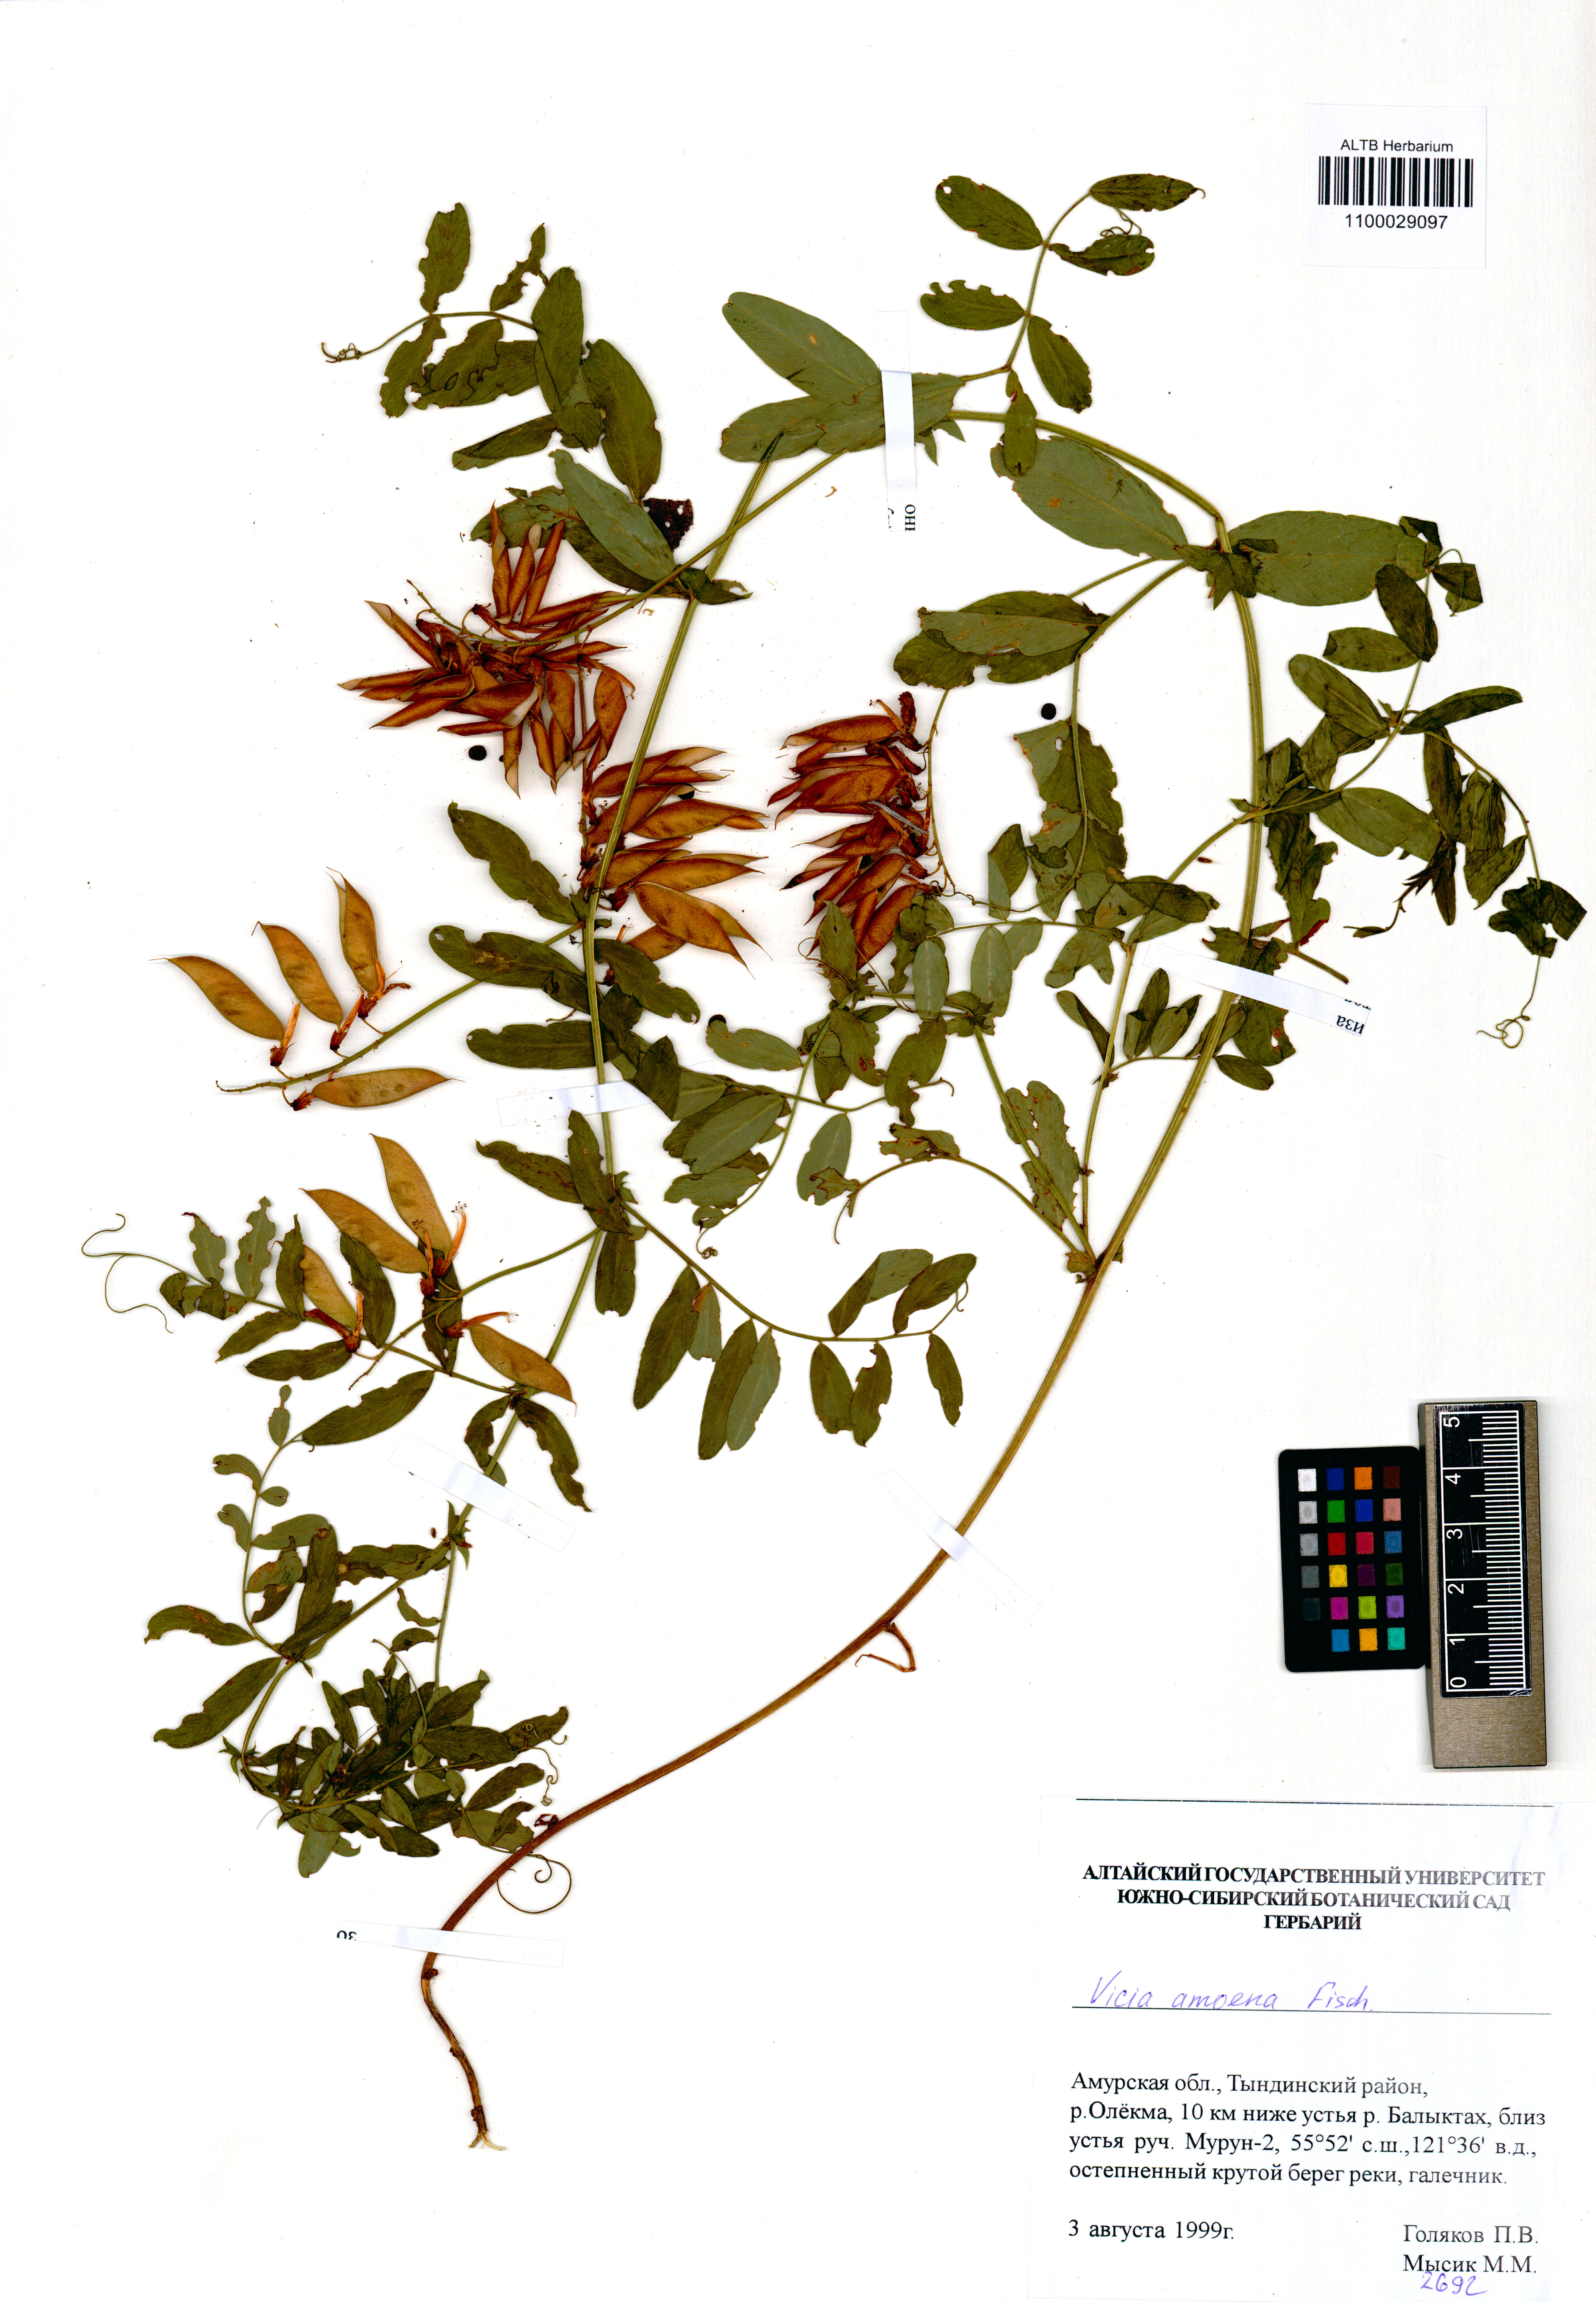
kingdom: Plantae
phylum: Tracheophyta
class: Magnoliopsida
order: Fabales
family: Fabaceae
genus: Vicia
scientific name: Vicia amoena
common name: Cheder ebs
